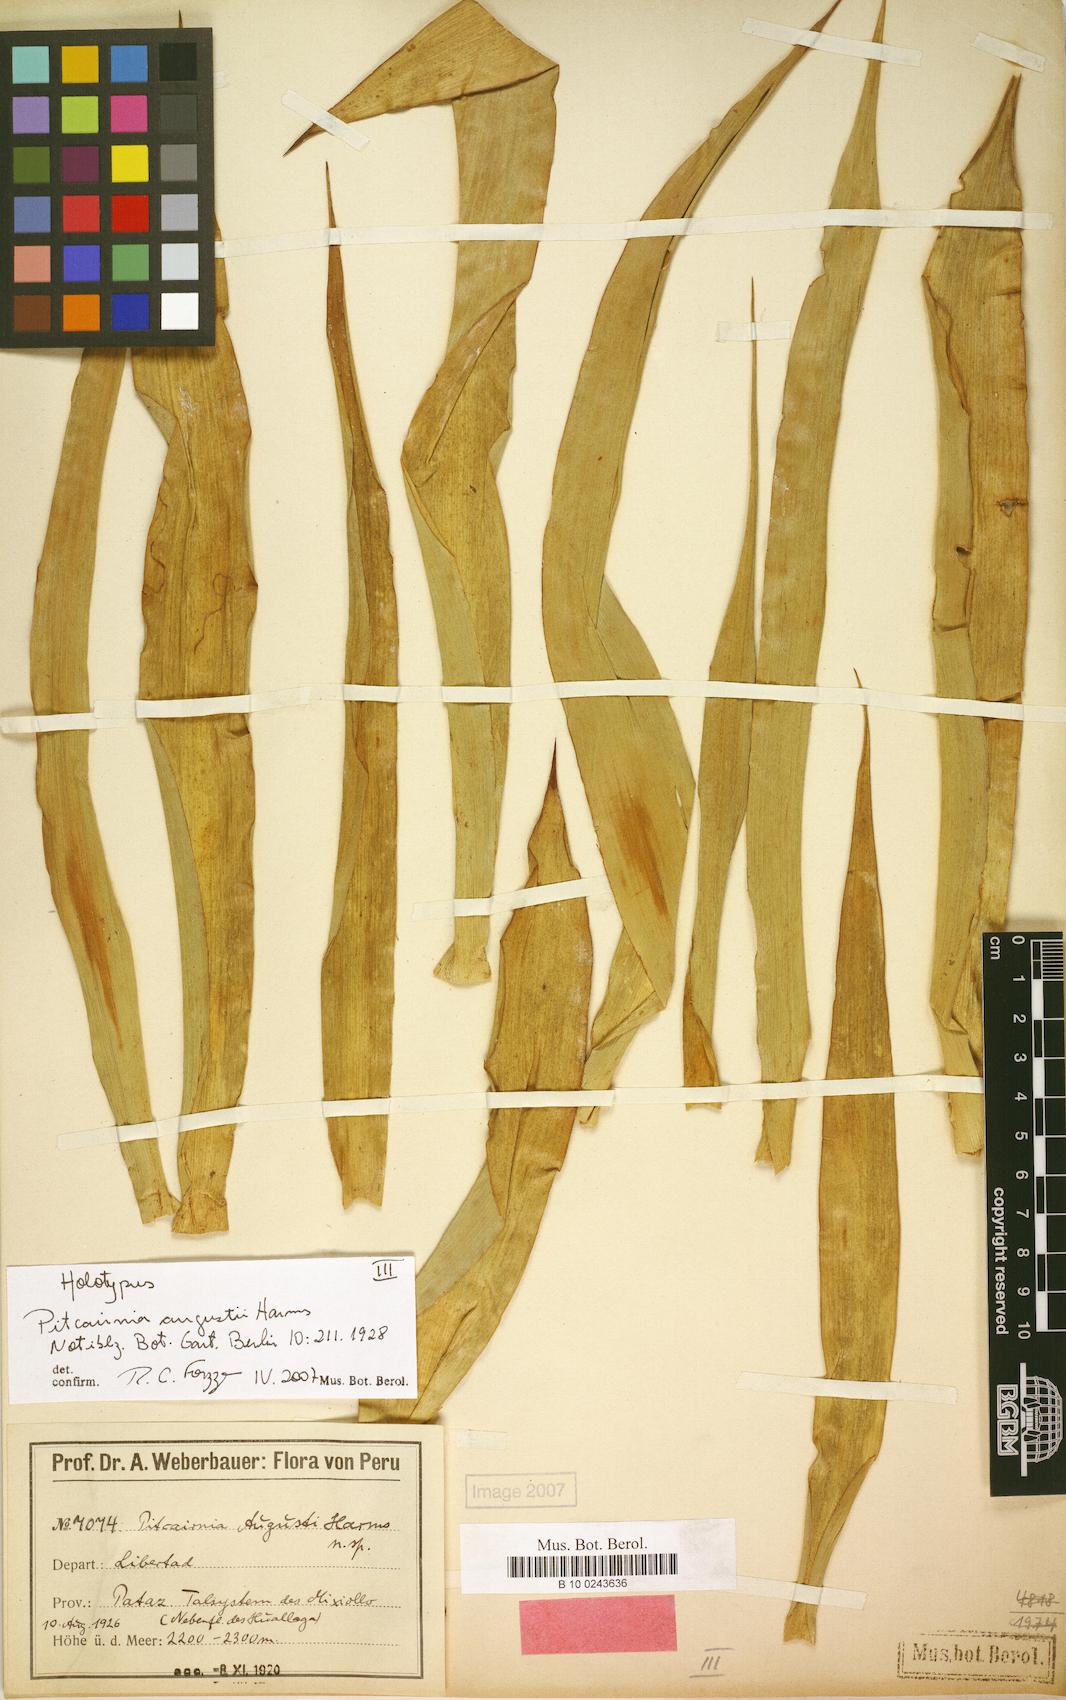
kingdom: Plantae
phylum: Tracheophyta
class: Liliopsida
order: Poales
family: Bromeliaceae
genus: Pitcairnia
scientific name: Pitcairnia augusti
